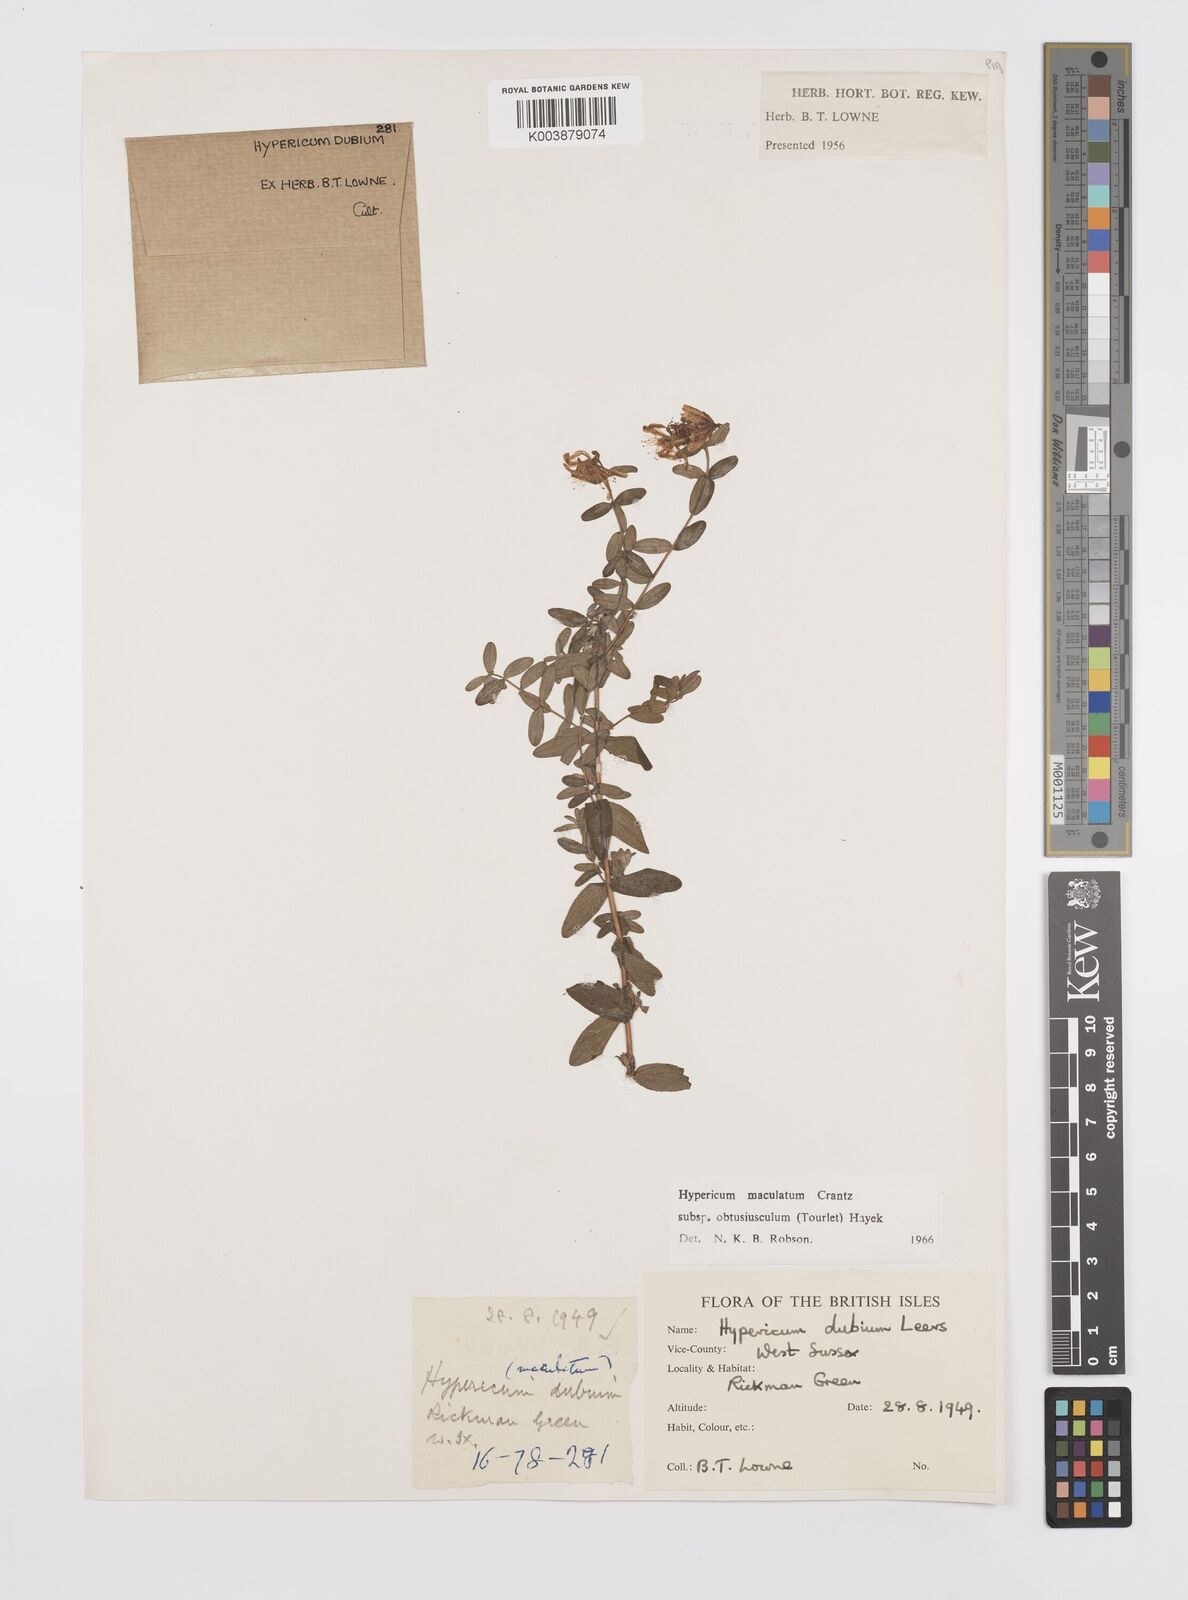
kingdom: Plantae
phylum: Tracheophyta
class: Magnoliopsida
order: Malpighiales
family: Hypericaceae
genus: Hypericum
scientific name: Hypericum dubium
